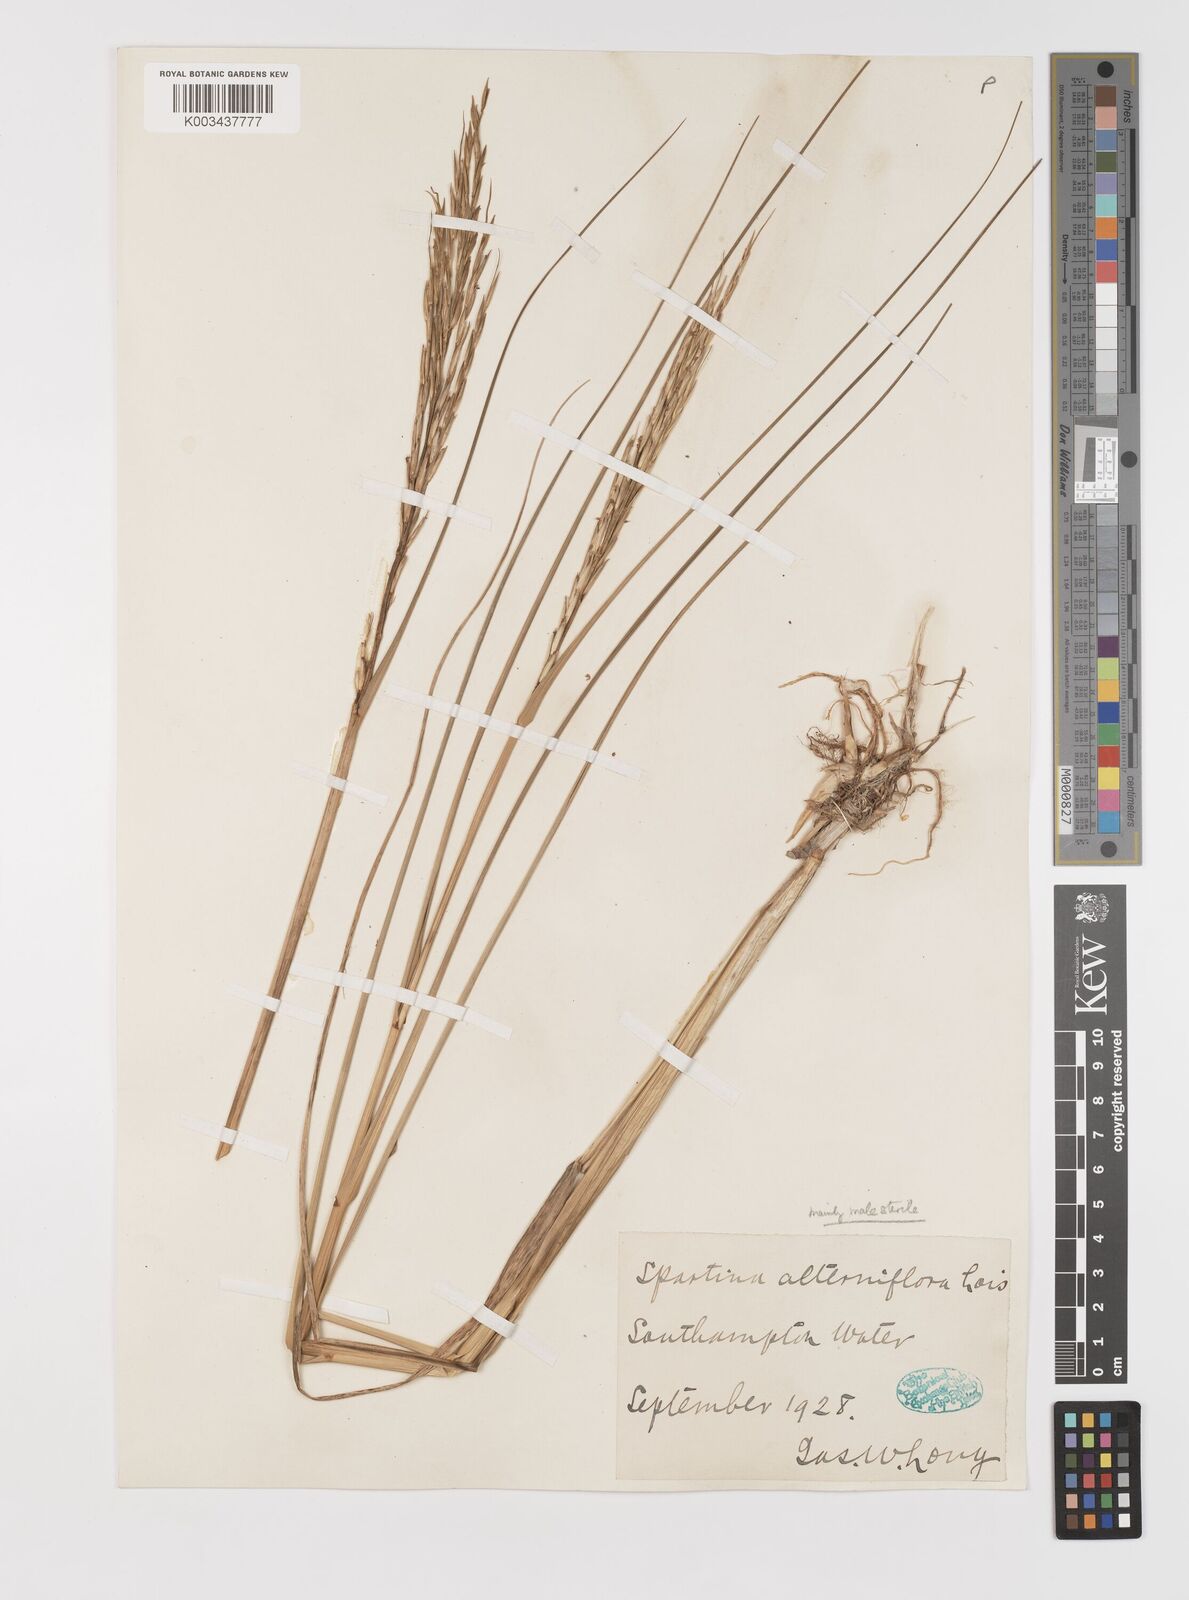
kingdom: Plantae
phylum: Tracheophyta
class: Liliopsida
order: Poales
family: Poaceae
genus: Sporobolus
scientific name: Sporobolus alterniflorus
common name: Atlantic cordgrass
